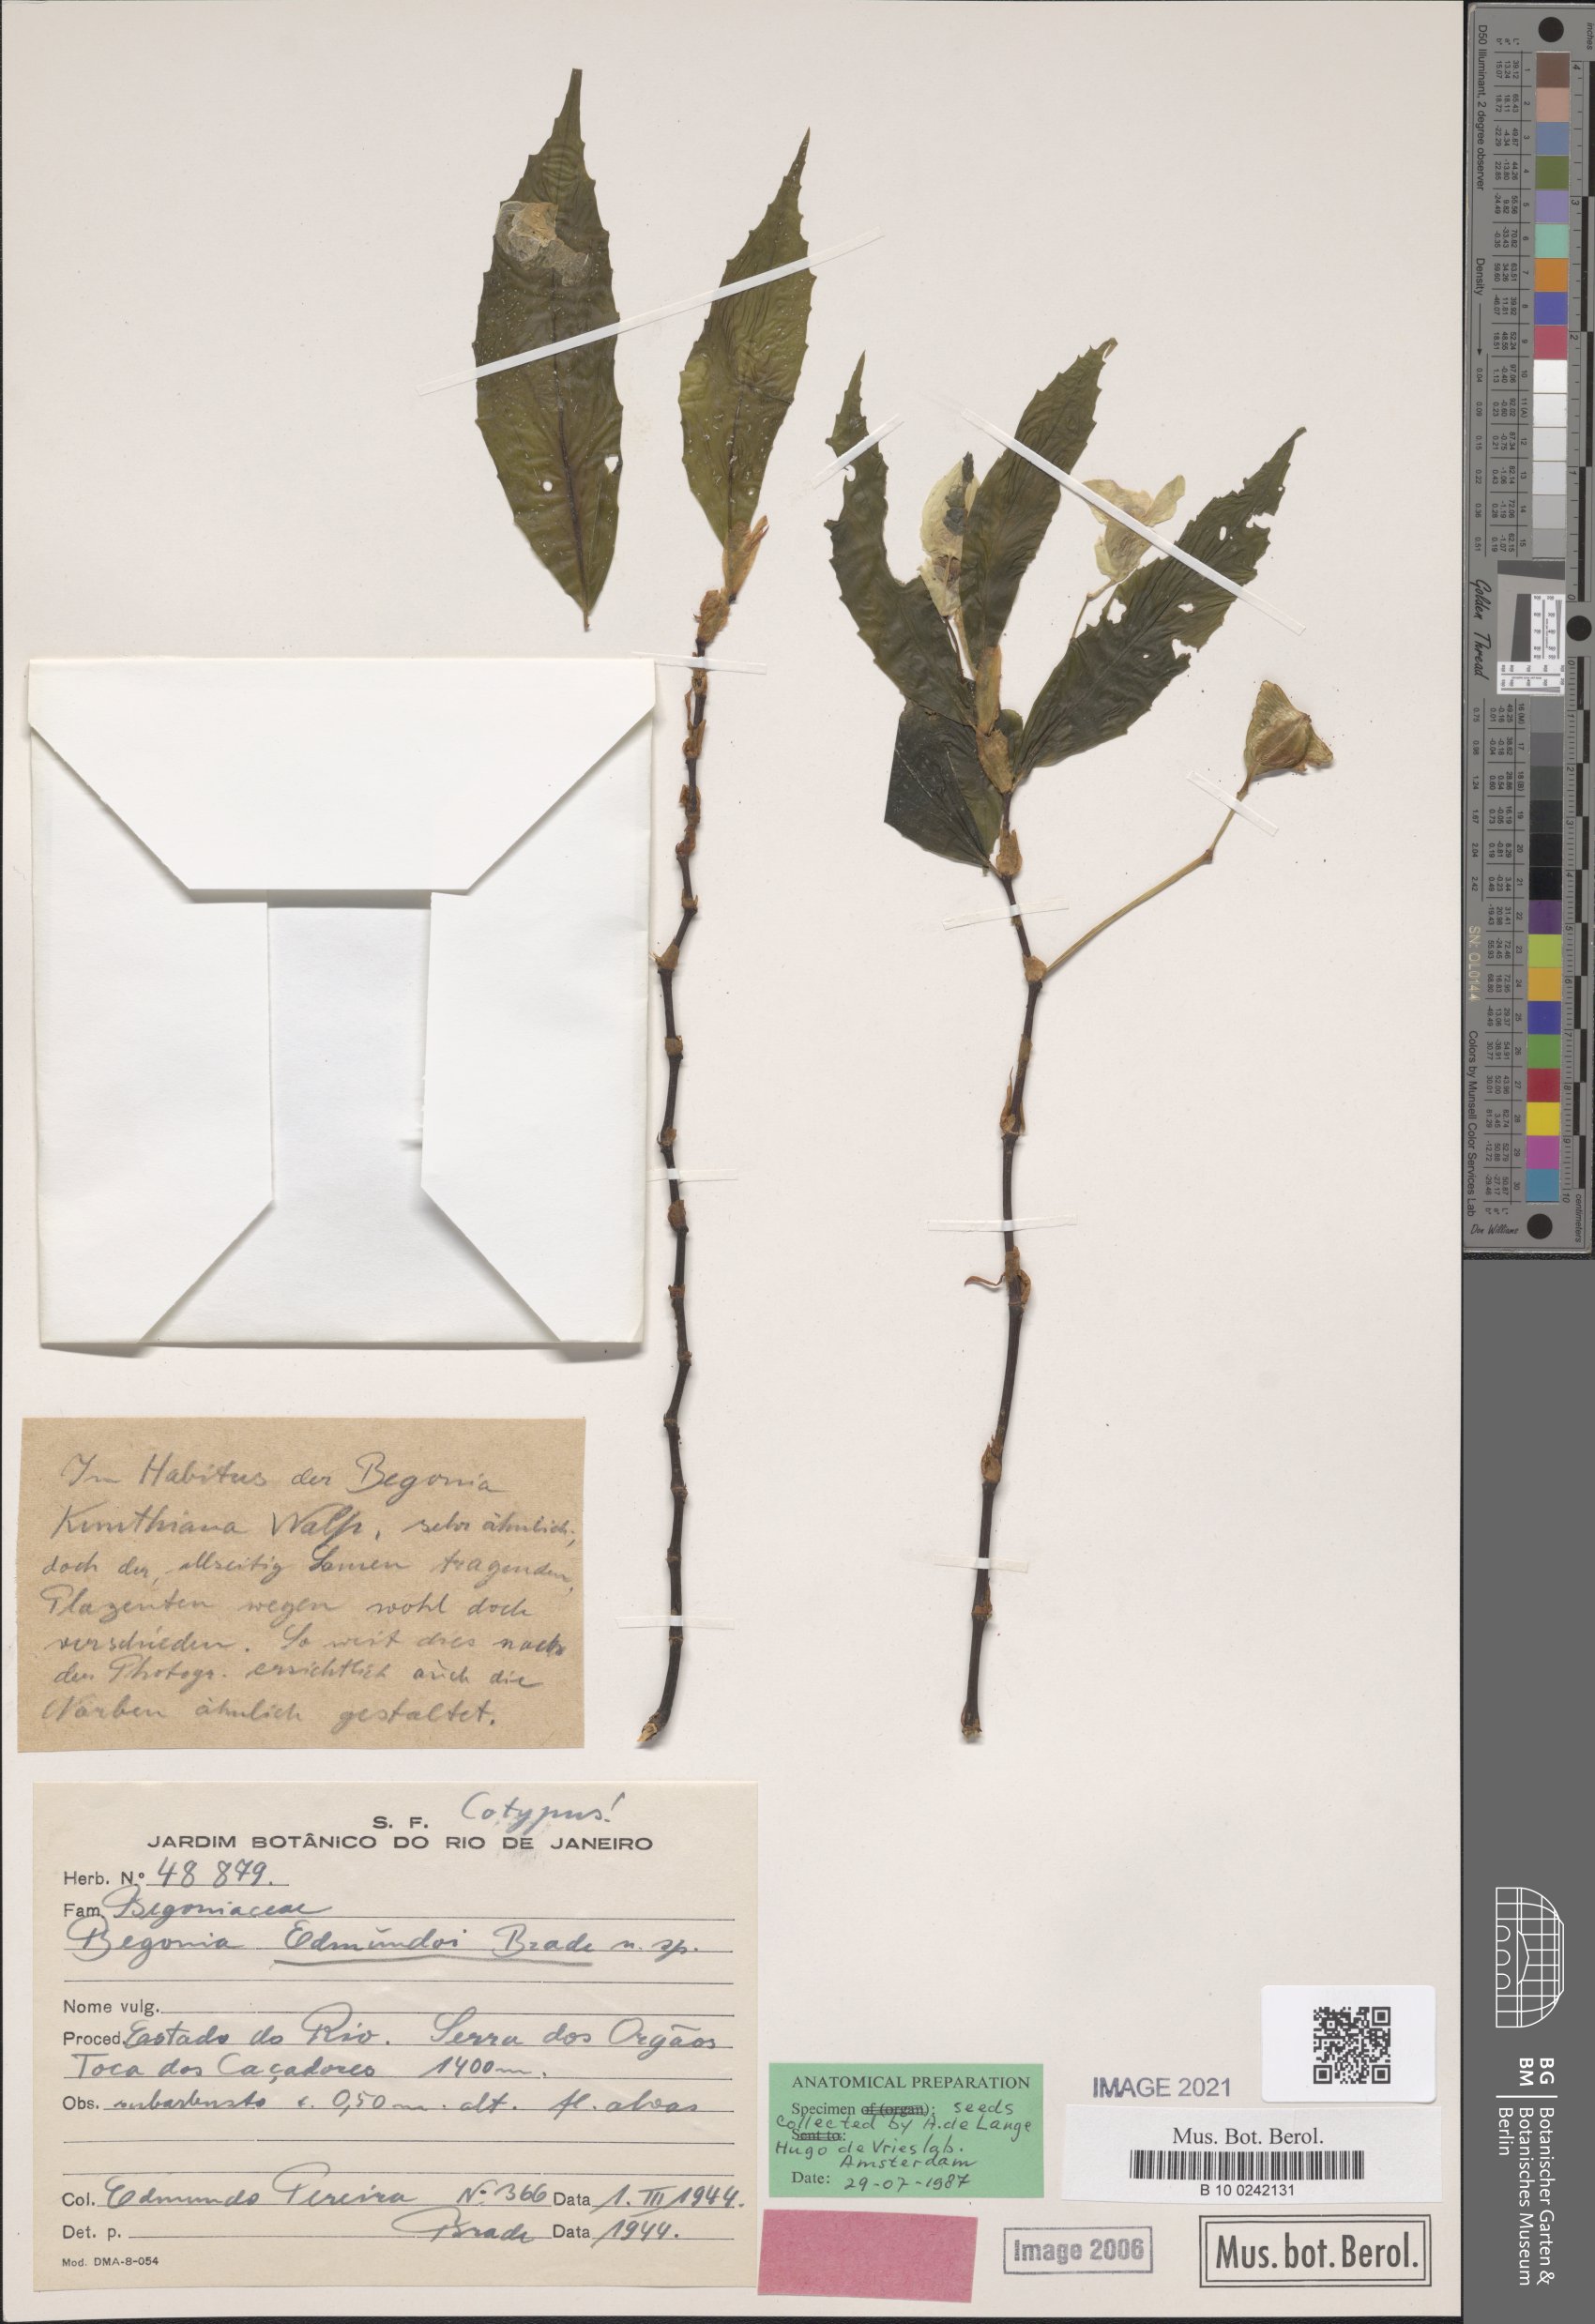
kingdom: Plantae
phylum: Tracheophyta
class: Magnoliopsida
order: Cucurbitales
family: Begoniaceae
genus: Begonia
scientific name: Begonia kunthiana
